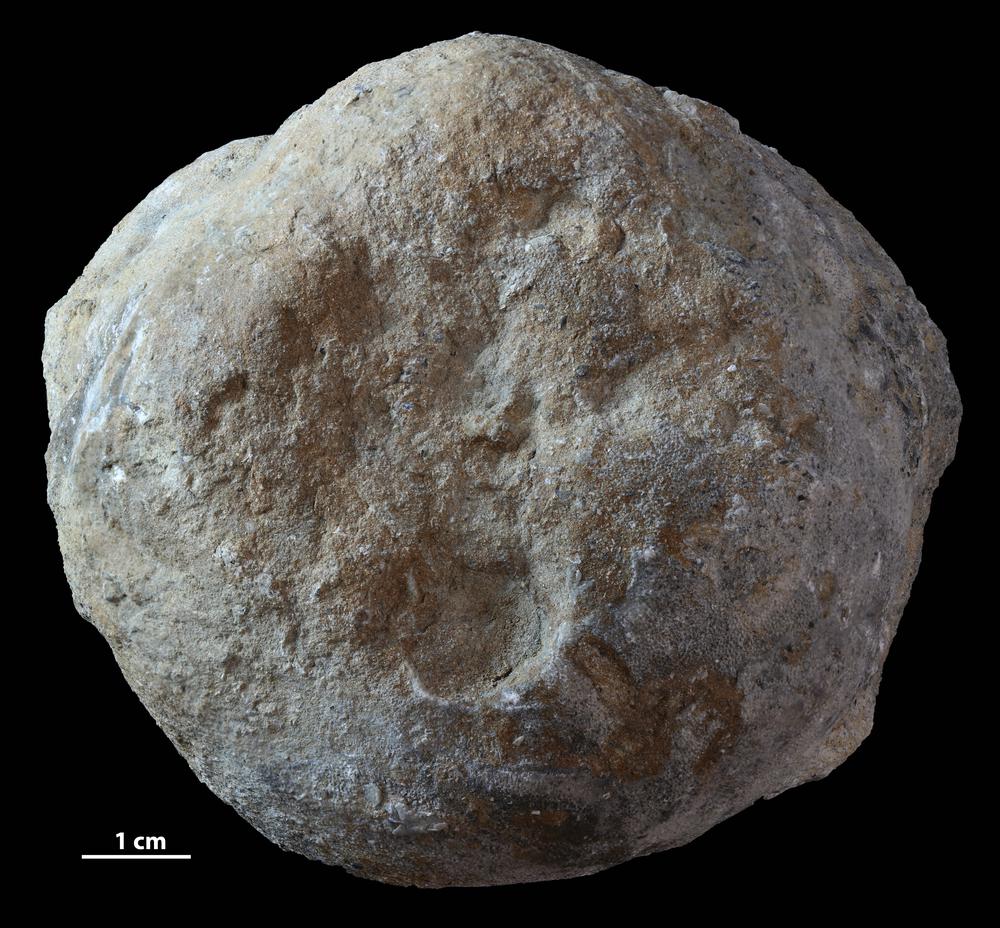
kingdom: Animalia
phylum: Bryozoa
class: Stenolaemata
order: Trepostomatida
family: Diplotrypidae
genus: Diplotrypa
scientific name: Diplotrypa
